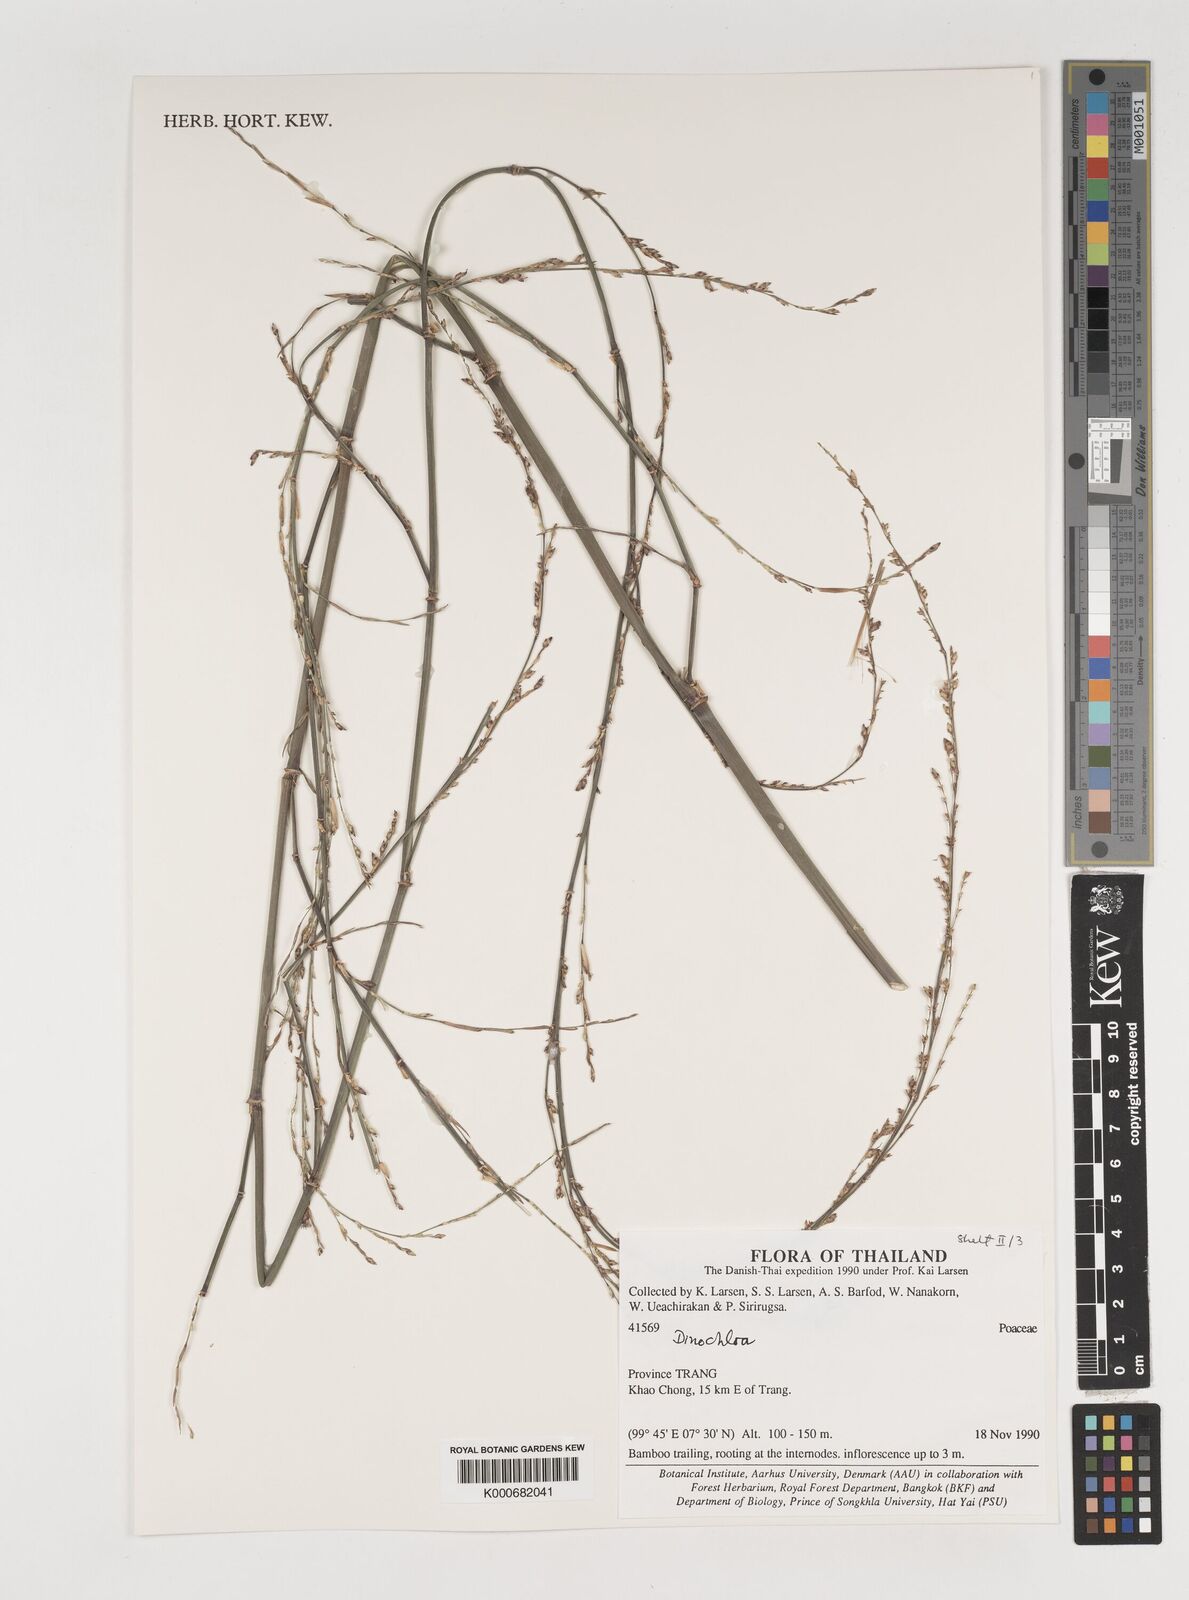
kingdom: Plantae
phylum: Tracheophyta
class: Liliopsida
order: Poales
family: Poaceae
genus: Dinochloa
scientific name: Dinochloa
